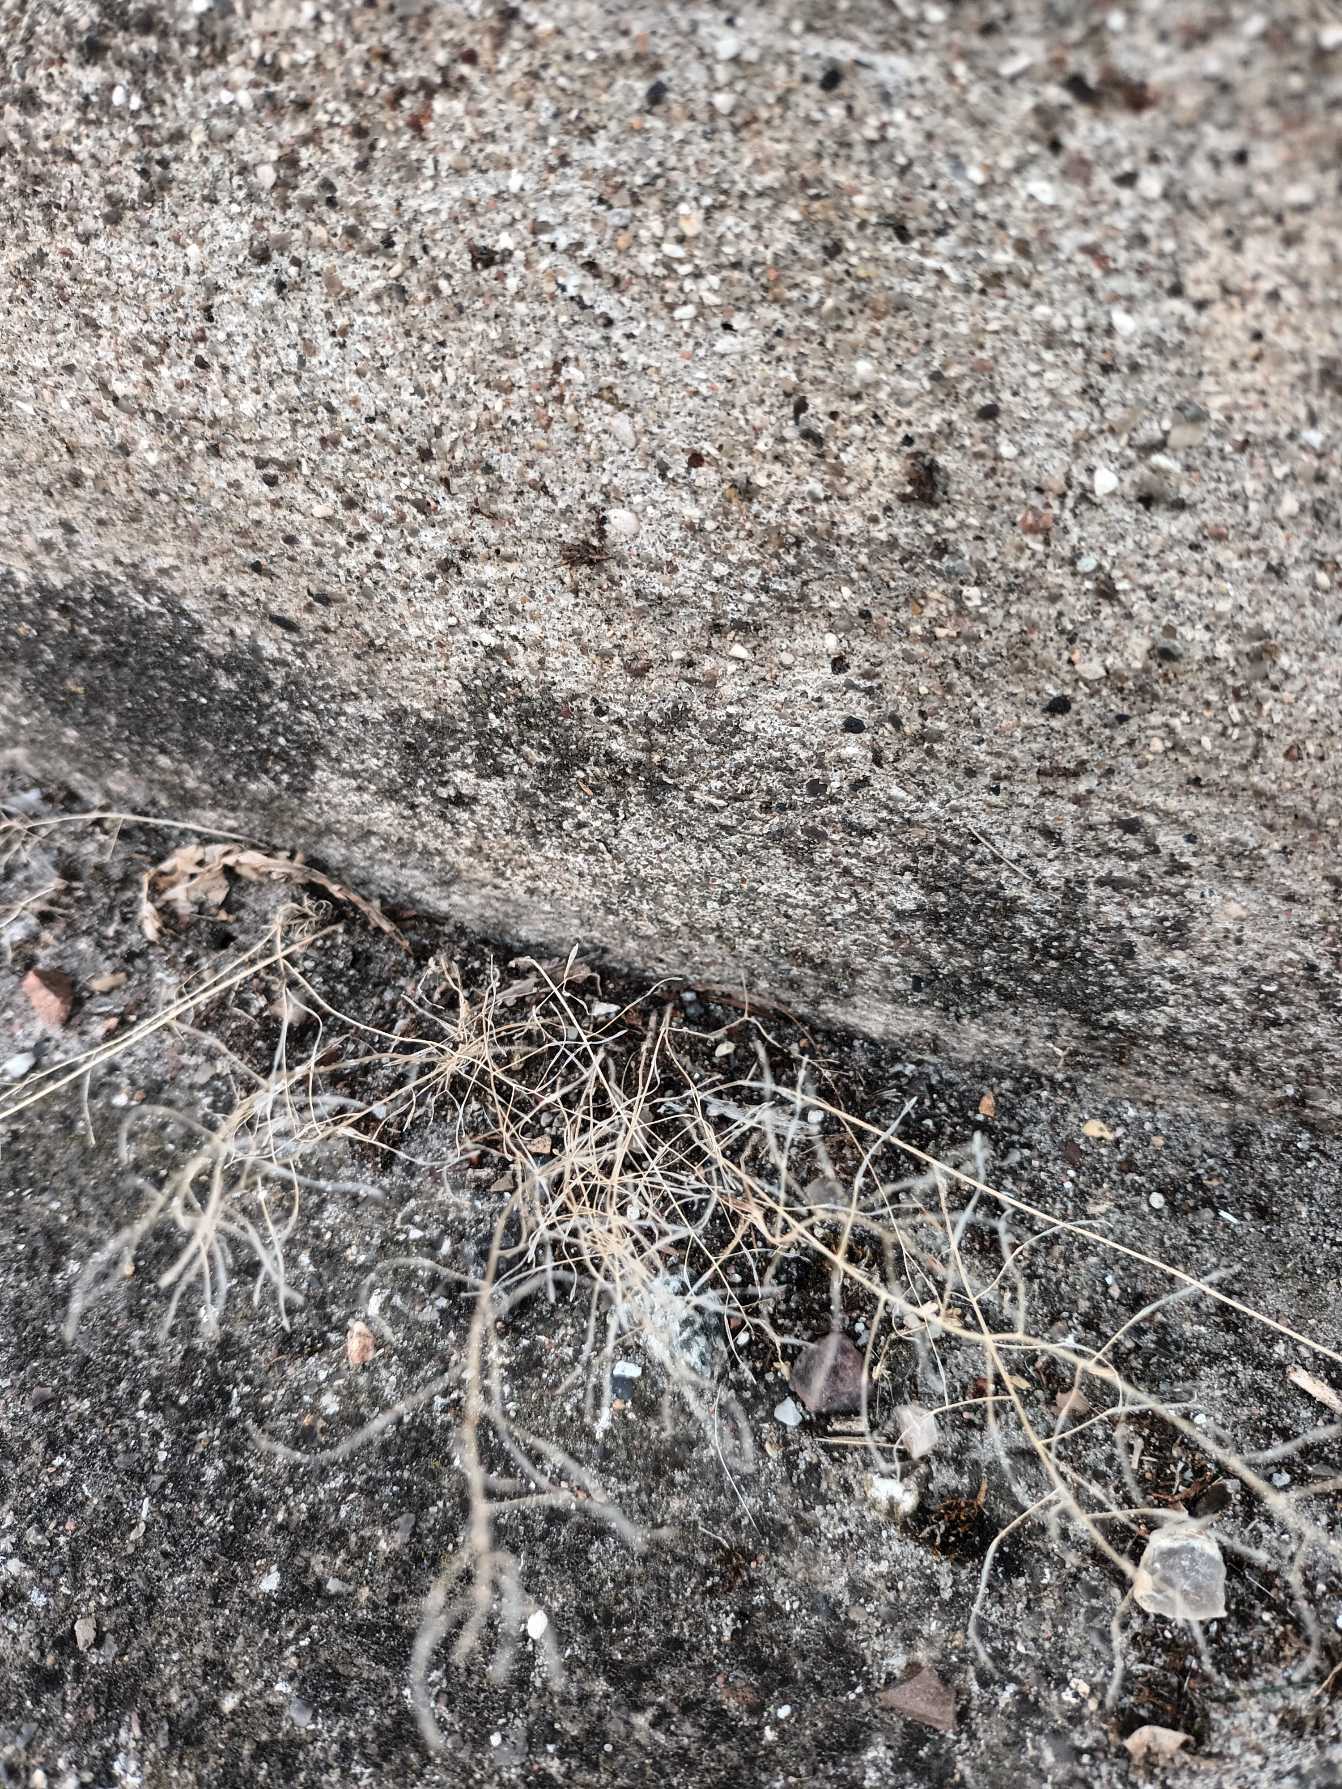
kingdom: Plantae
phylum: Tracheophyta
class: Magnoliopsida
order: Brassicales
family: Brassicaceae
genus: Arabidopsis
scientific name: Arabidopsis thaliana
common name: Almindelig gåsemad
